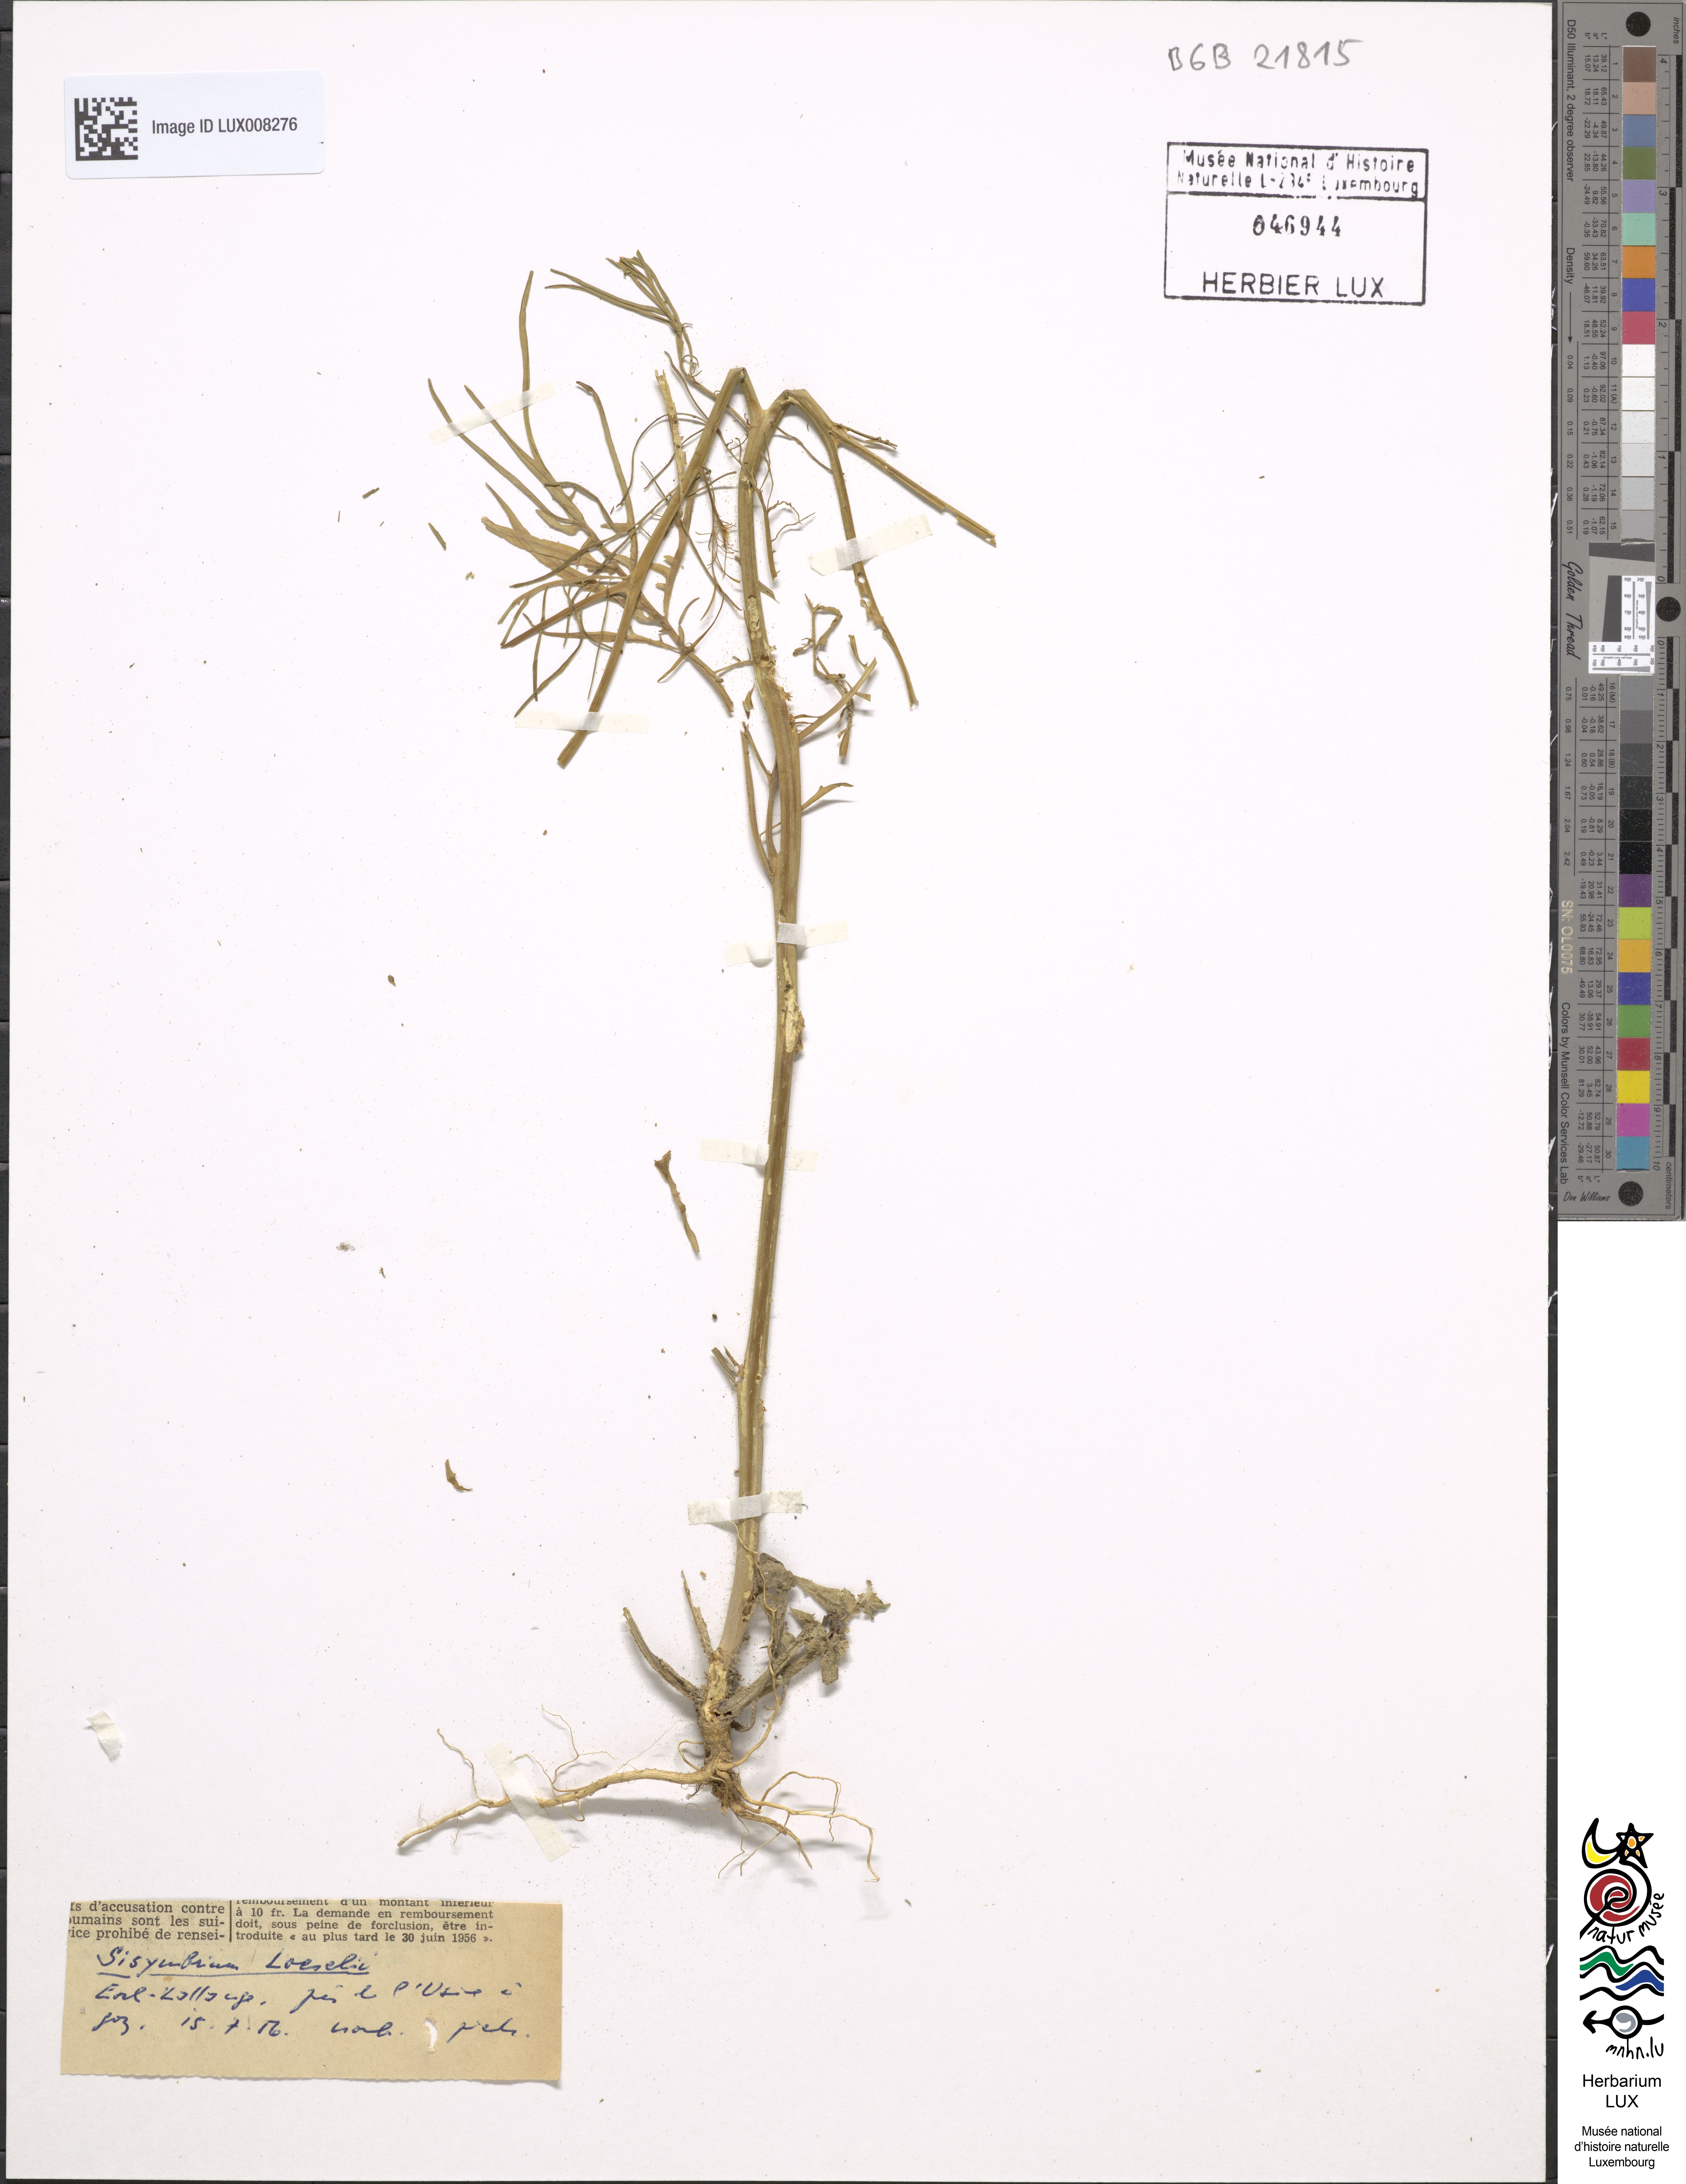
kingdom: Plantae
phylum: Tracheophyta
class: Magnoliopsida
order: Brassicales
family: Brassicaceae
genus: Sisymbrium
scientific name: Sisymbrium loeselii
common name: False london-rocket
